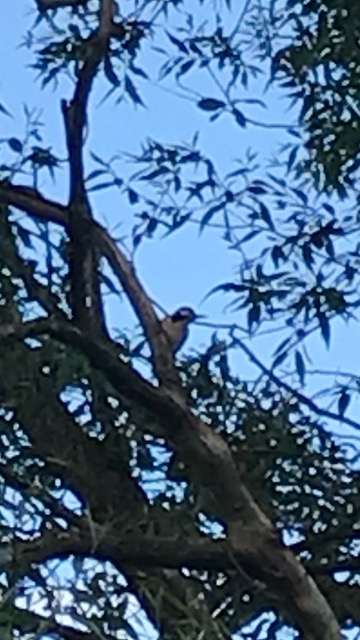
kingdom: Animalia
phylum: Chordata
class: Aves
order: Piciformes
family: Picidae
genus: Dendrocopos
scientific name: Dendrocopos major
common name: Stor flagspætte
